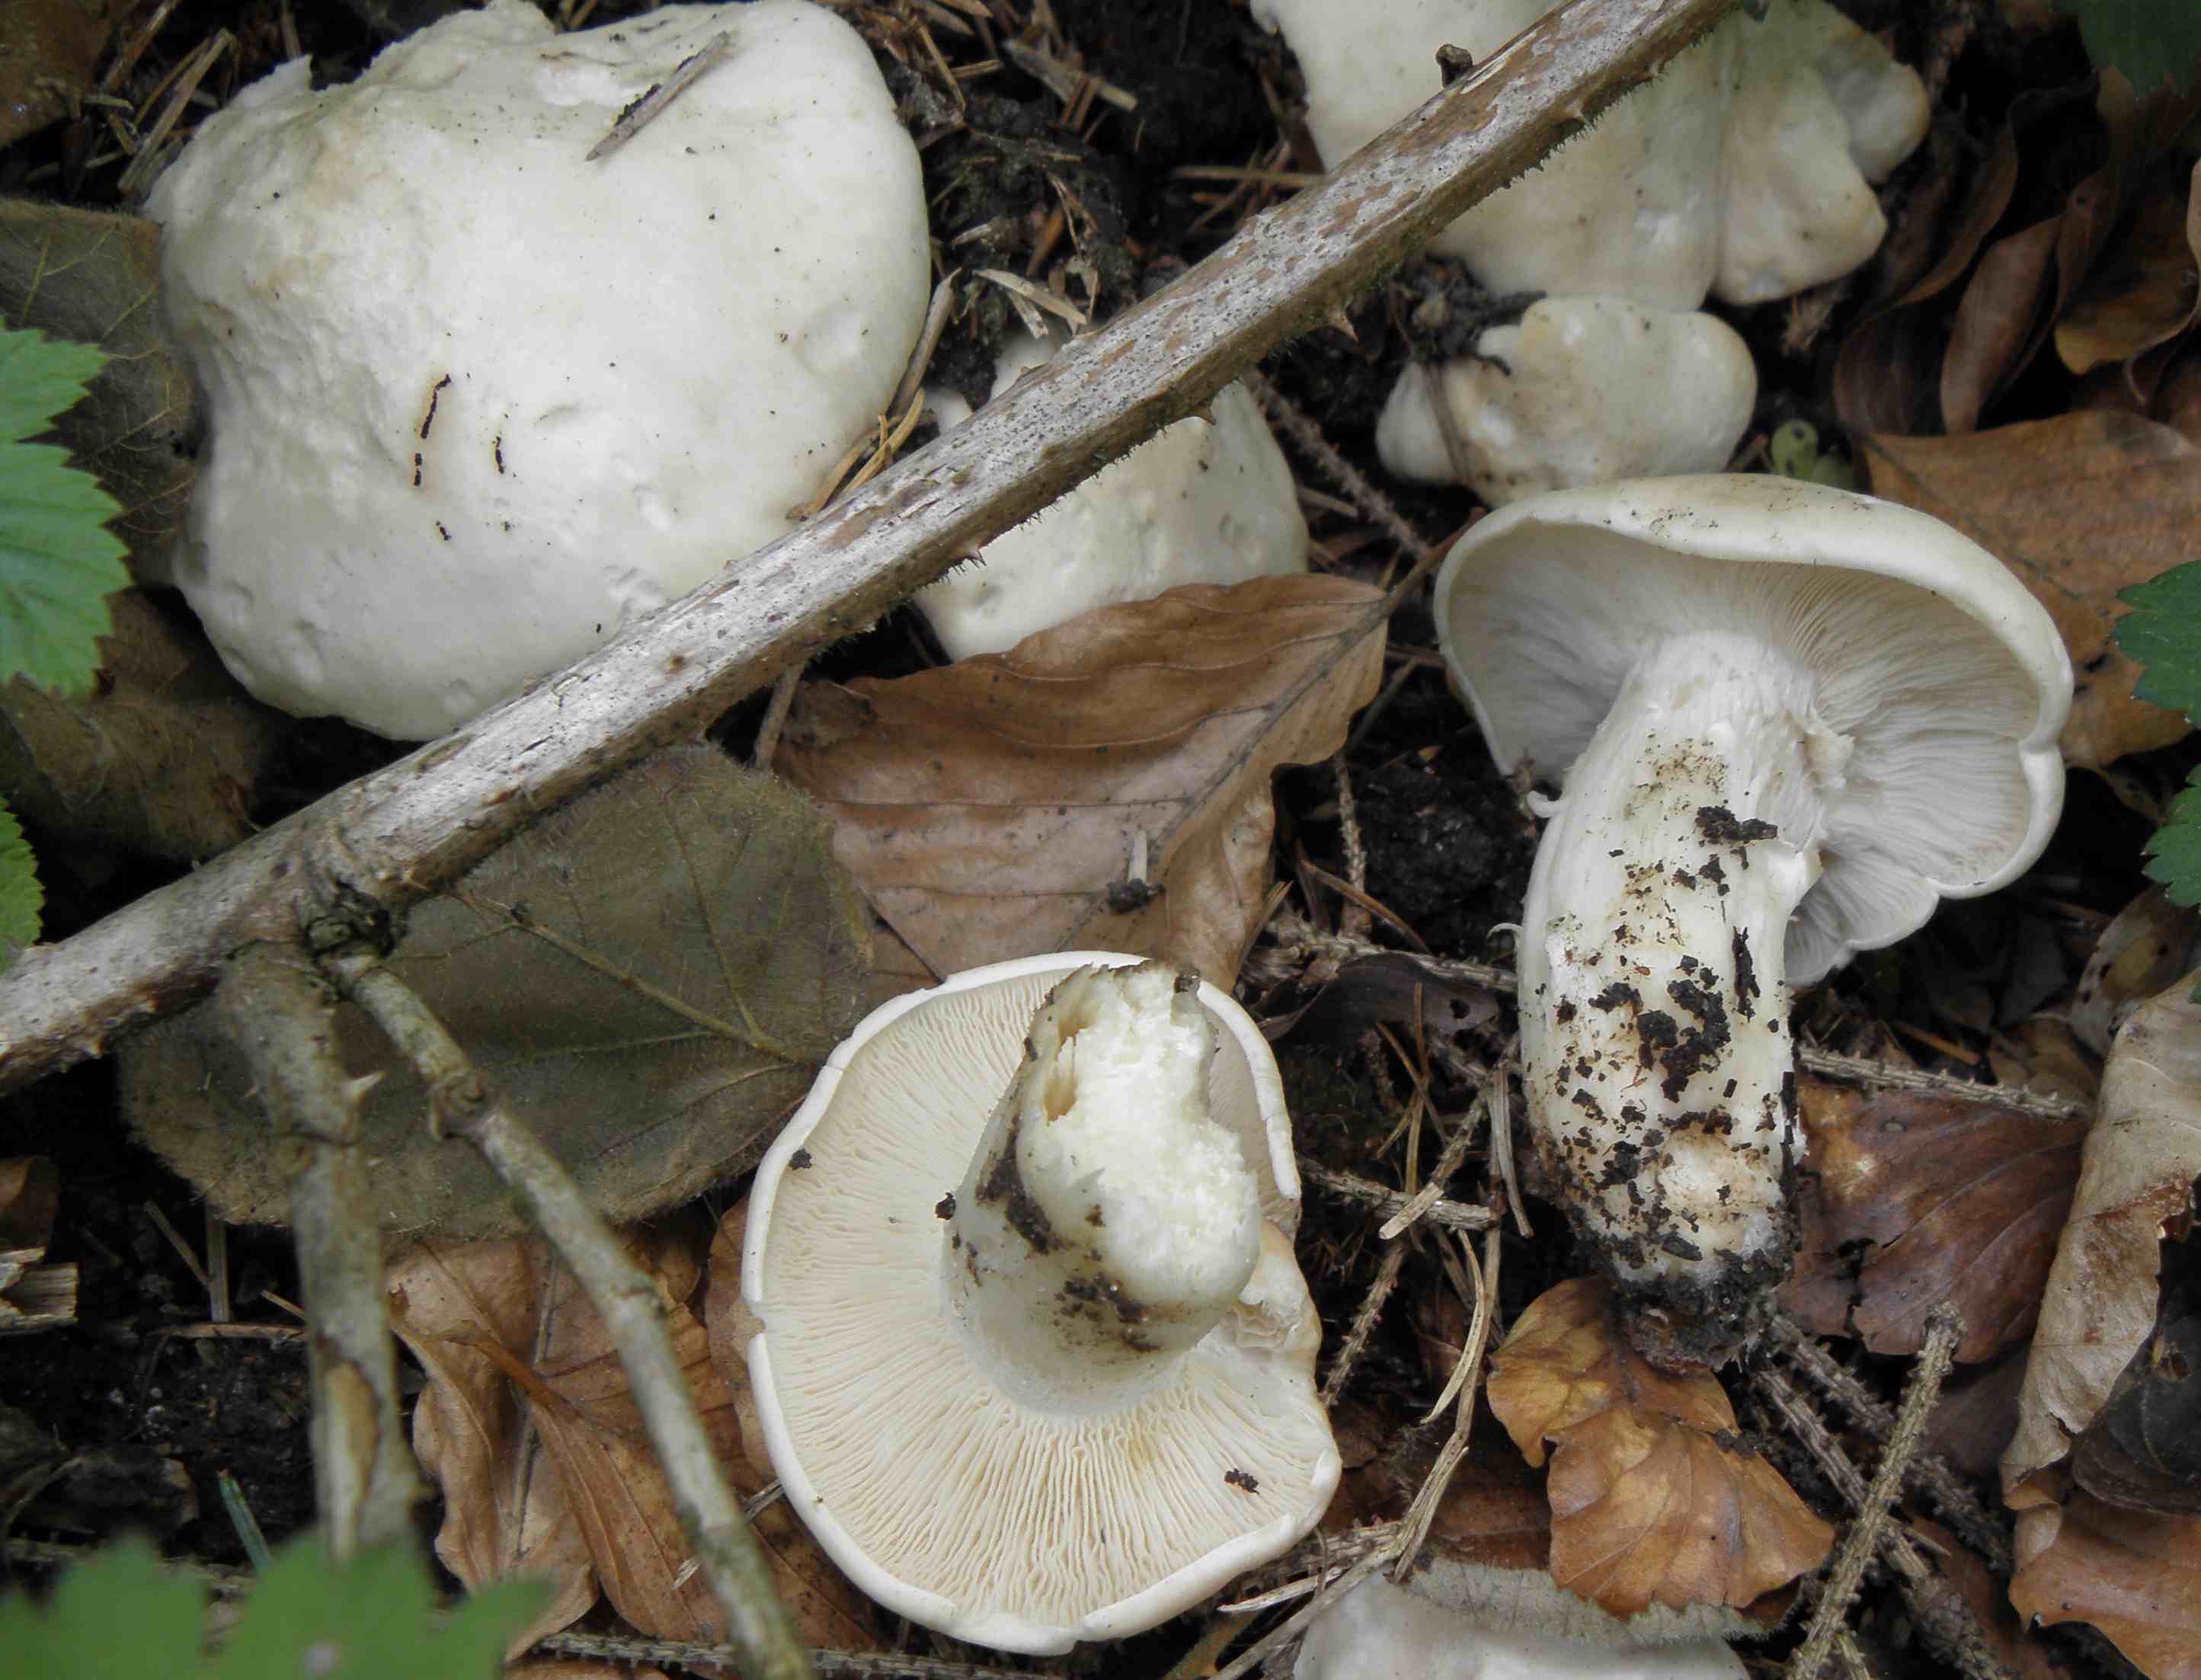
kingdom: Fungi
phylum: Basidiomycota
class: Agaricomycetes
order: Agaricales
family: Lyophyllaceae
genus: Calocybe
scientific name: Calocybe gambosa
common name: vårmusseron
